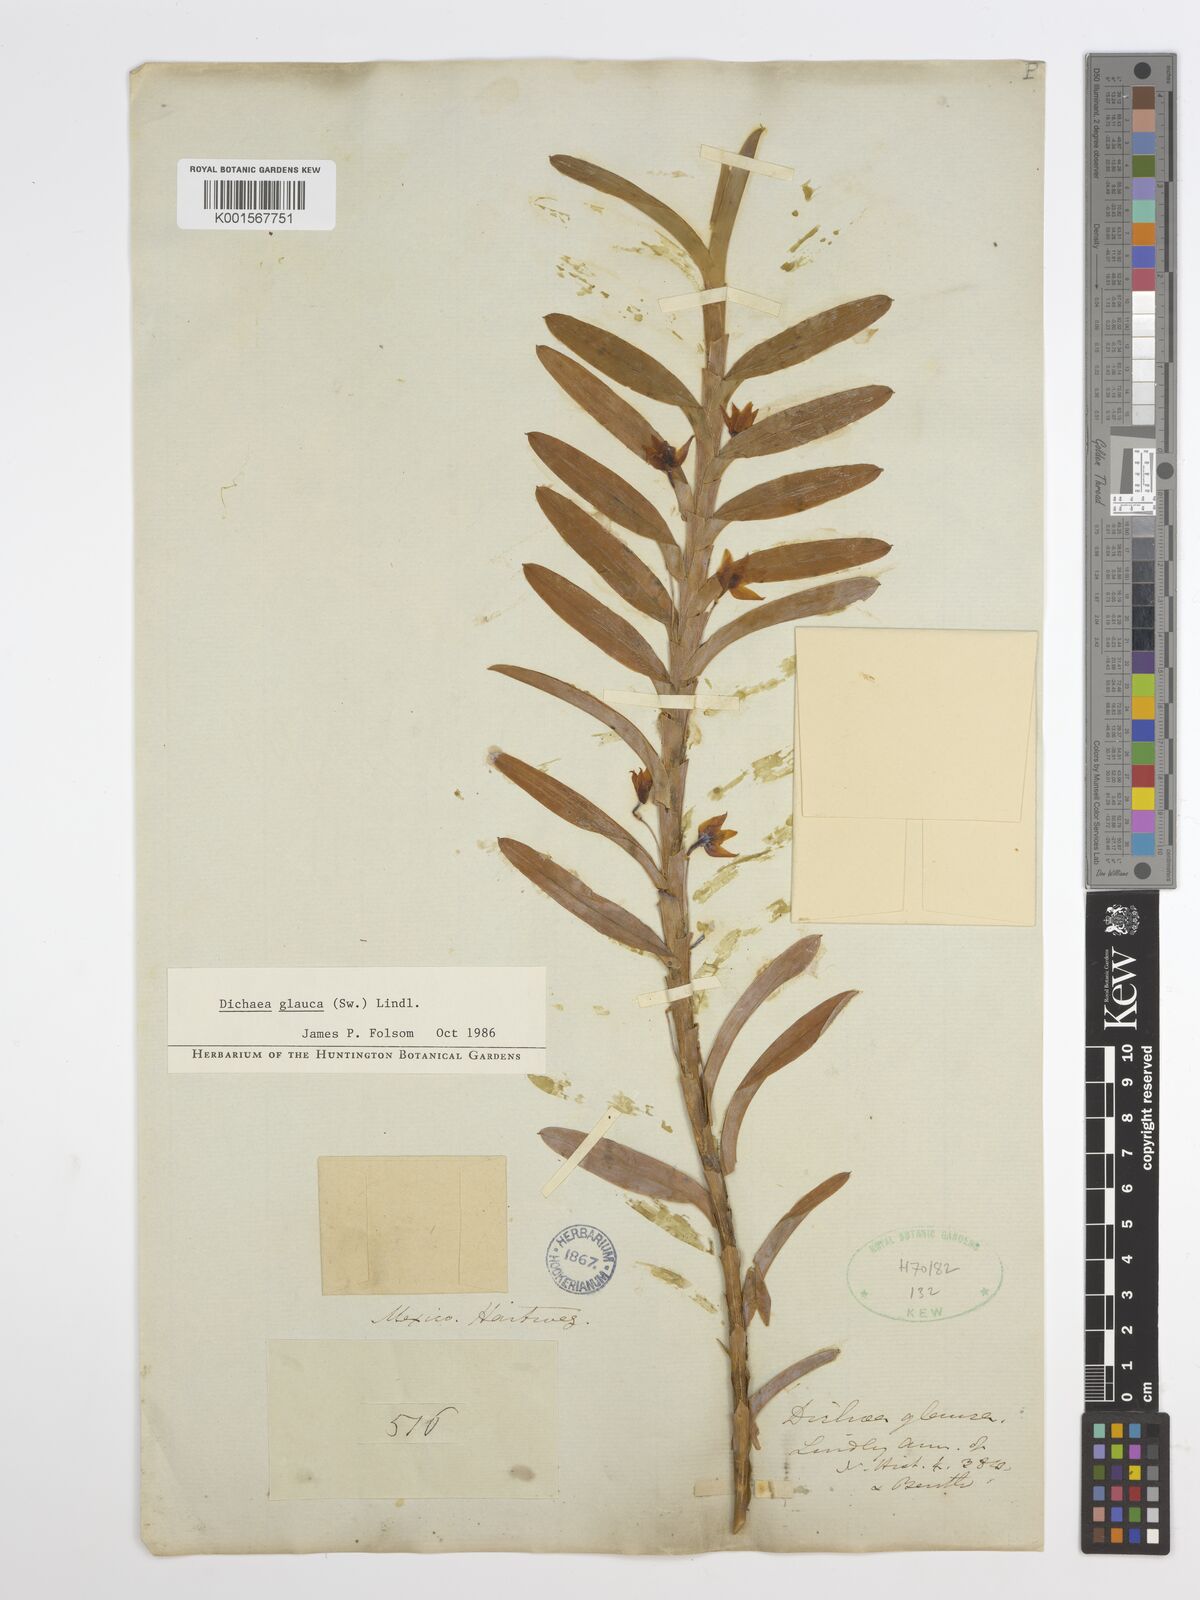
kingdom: Plantae
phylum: Tracheophyta
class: Liliopsida
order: Asparagales
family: Orchidaceae
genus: Dichaea
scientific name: Dichaea glauca
